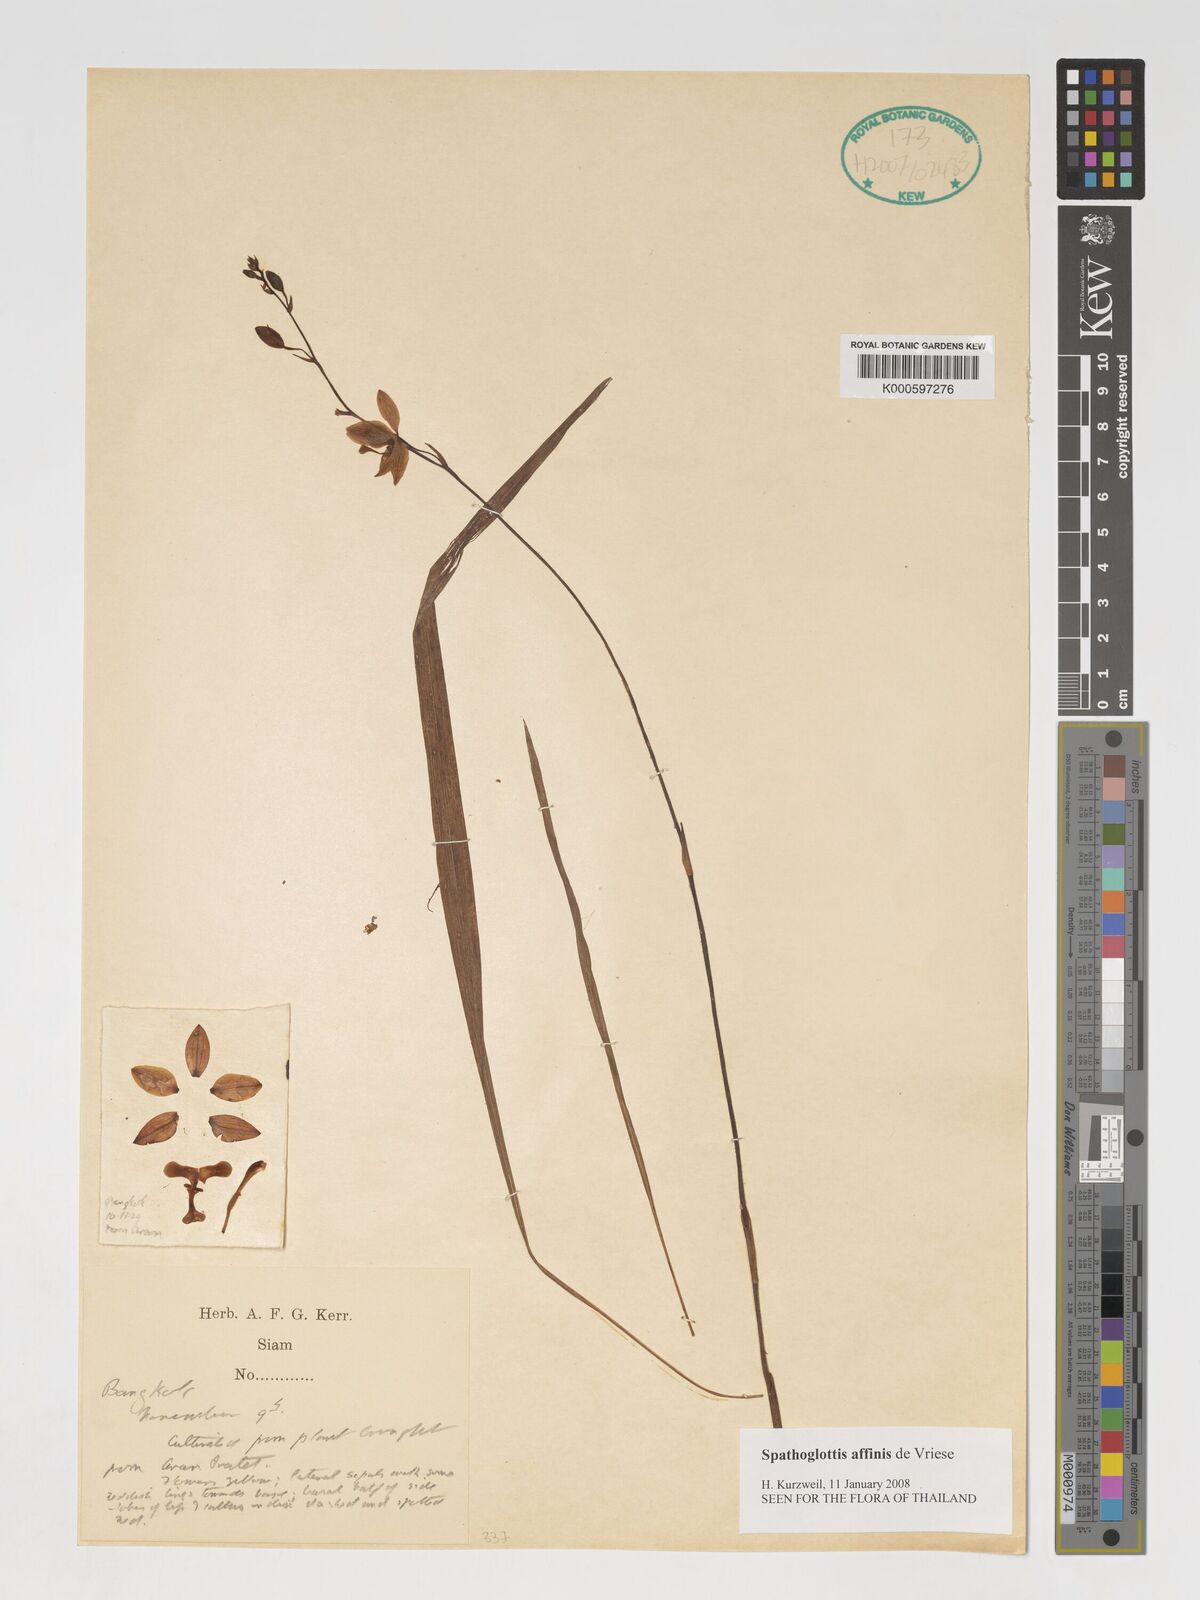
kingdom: Plantae
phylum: Tracheophyta
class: Liliopsida
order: Asparagales
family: Orchidaceae
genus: Spathoglottis
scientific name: Spathoglottis affinis
